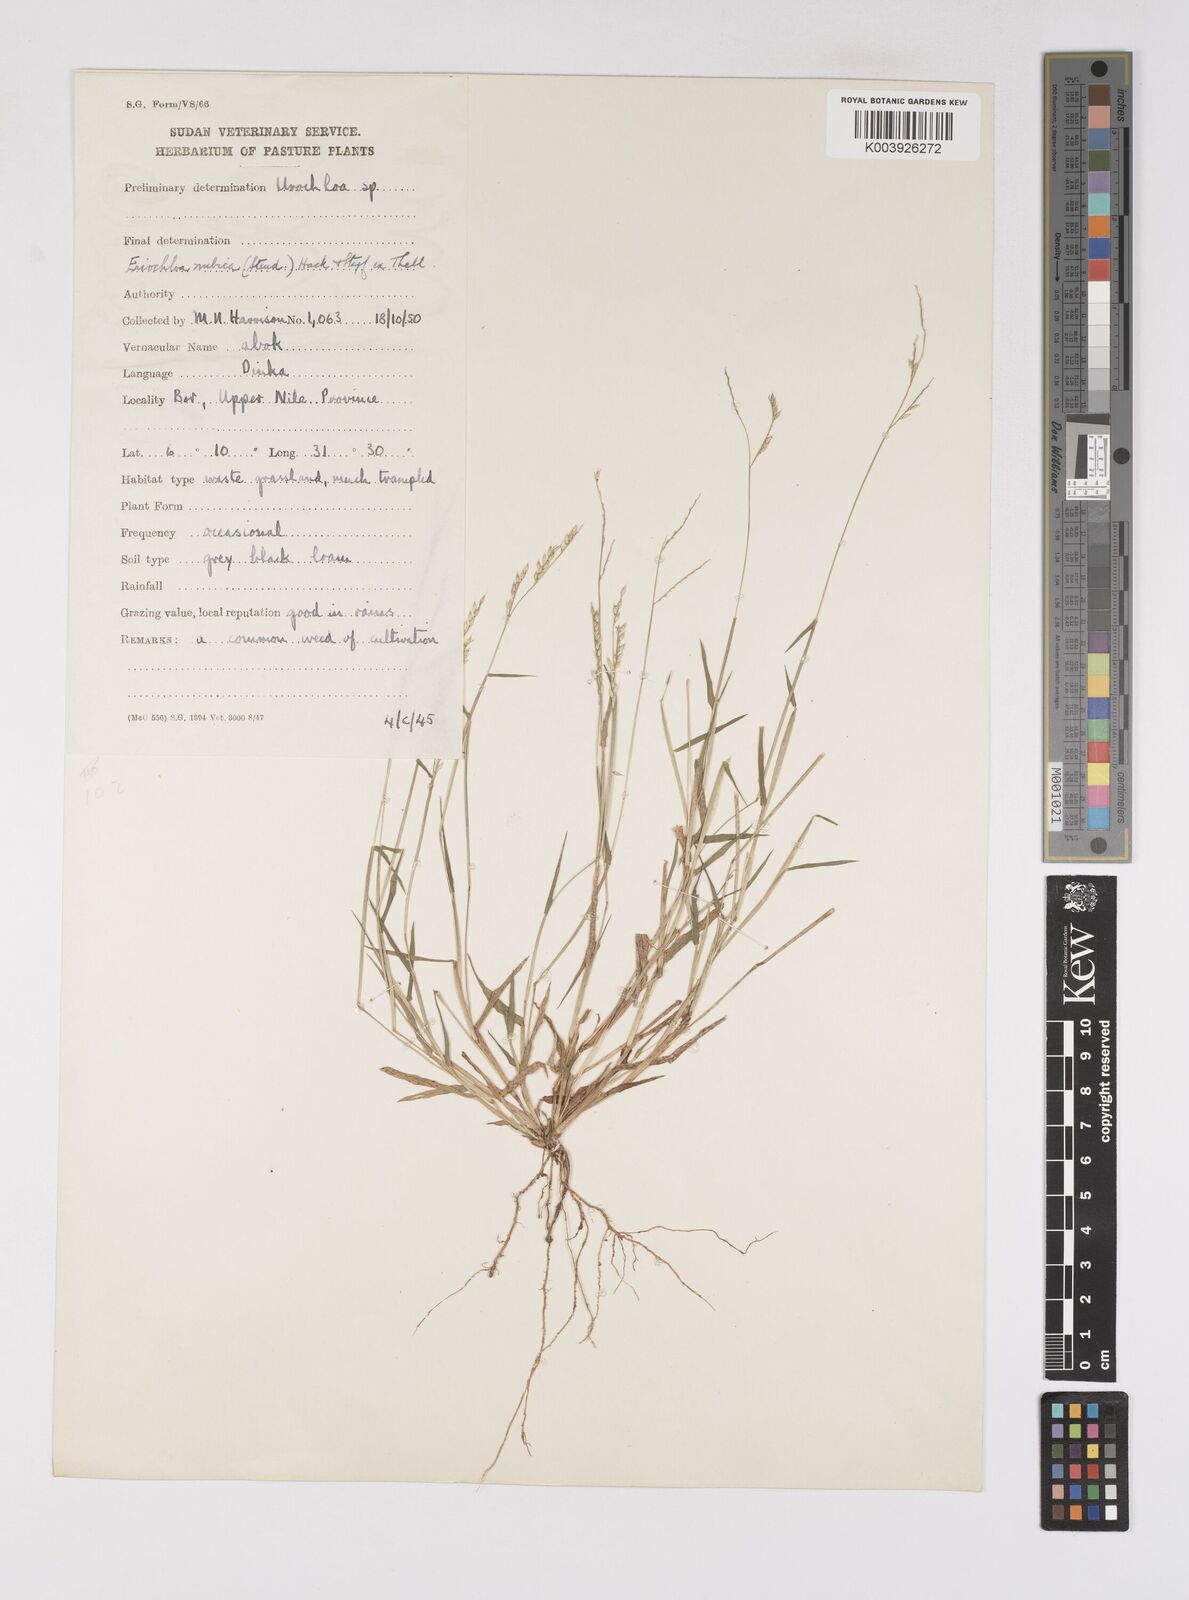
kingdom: Plantae
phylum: Tracheophyta
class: Liliopsida
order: Poales
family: Poaceae
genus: Eriochloa
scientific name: Eriochloa barbatus
